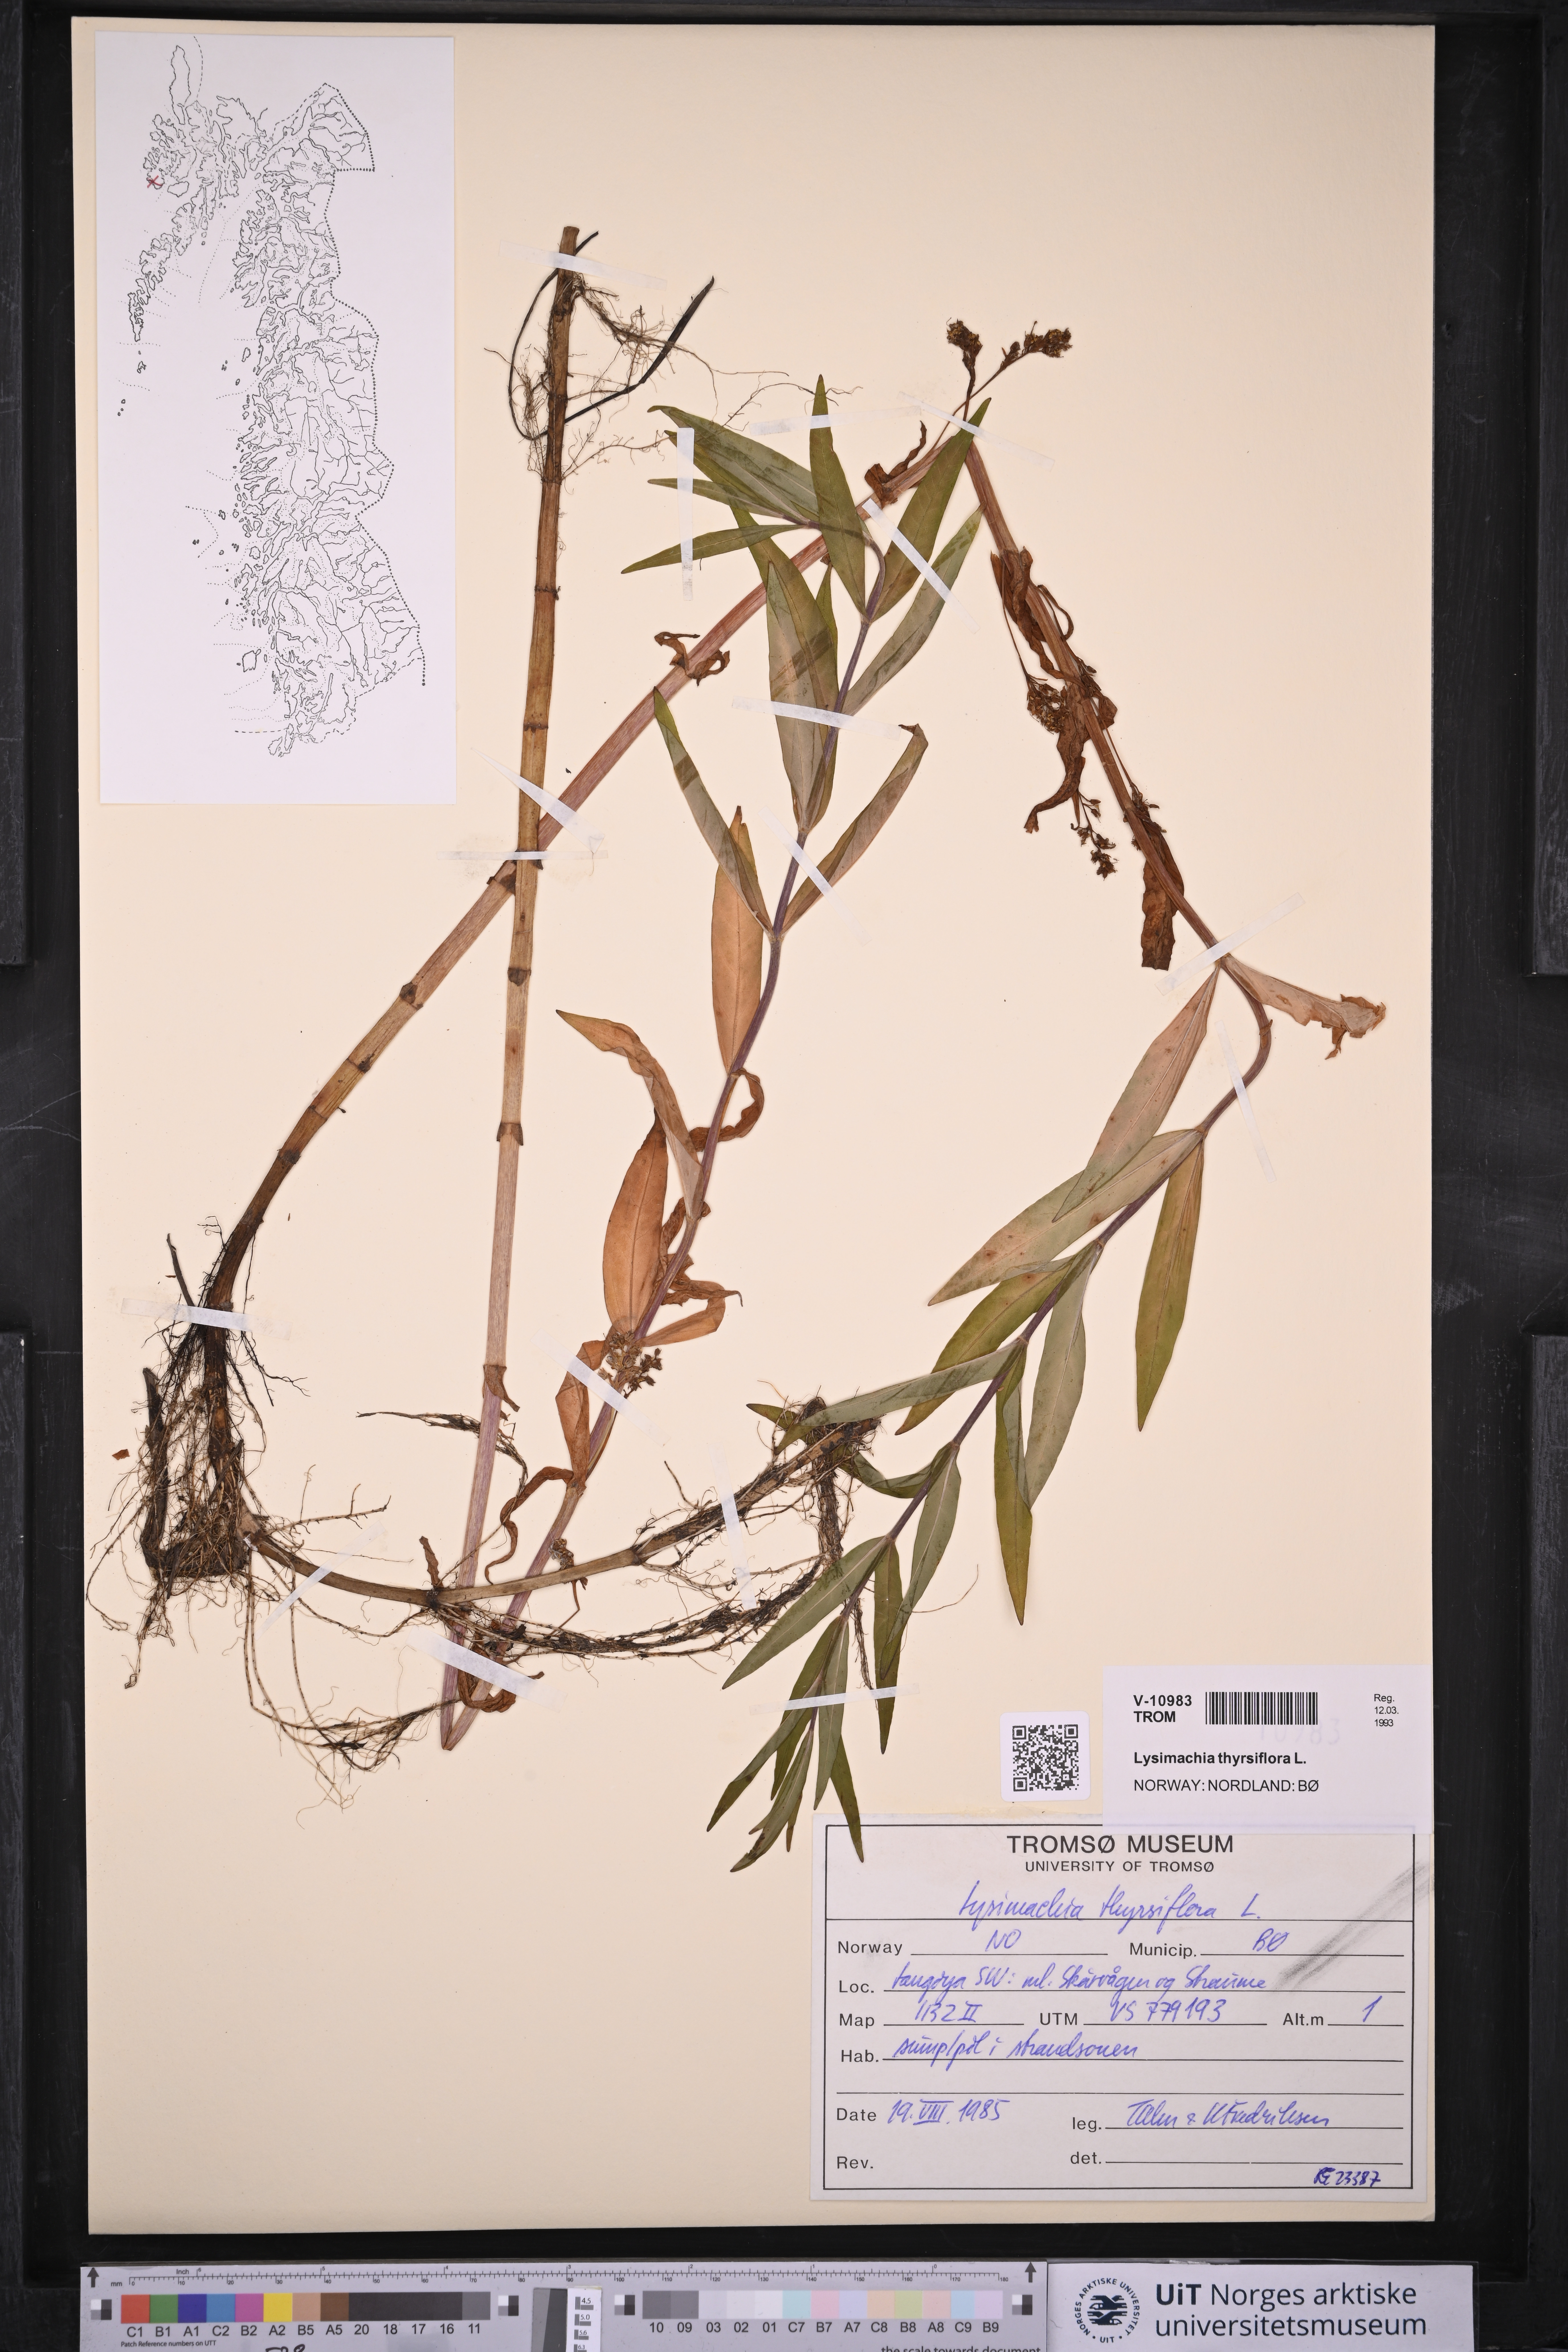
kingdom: Plantae
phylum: Tracheophyta
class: Magnoliopsida
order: Ericales
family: Primulaceae
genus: Lysimachia
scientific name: Lysimachia thyrsiflora
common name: Tufted loosestrife
